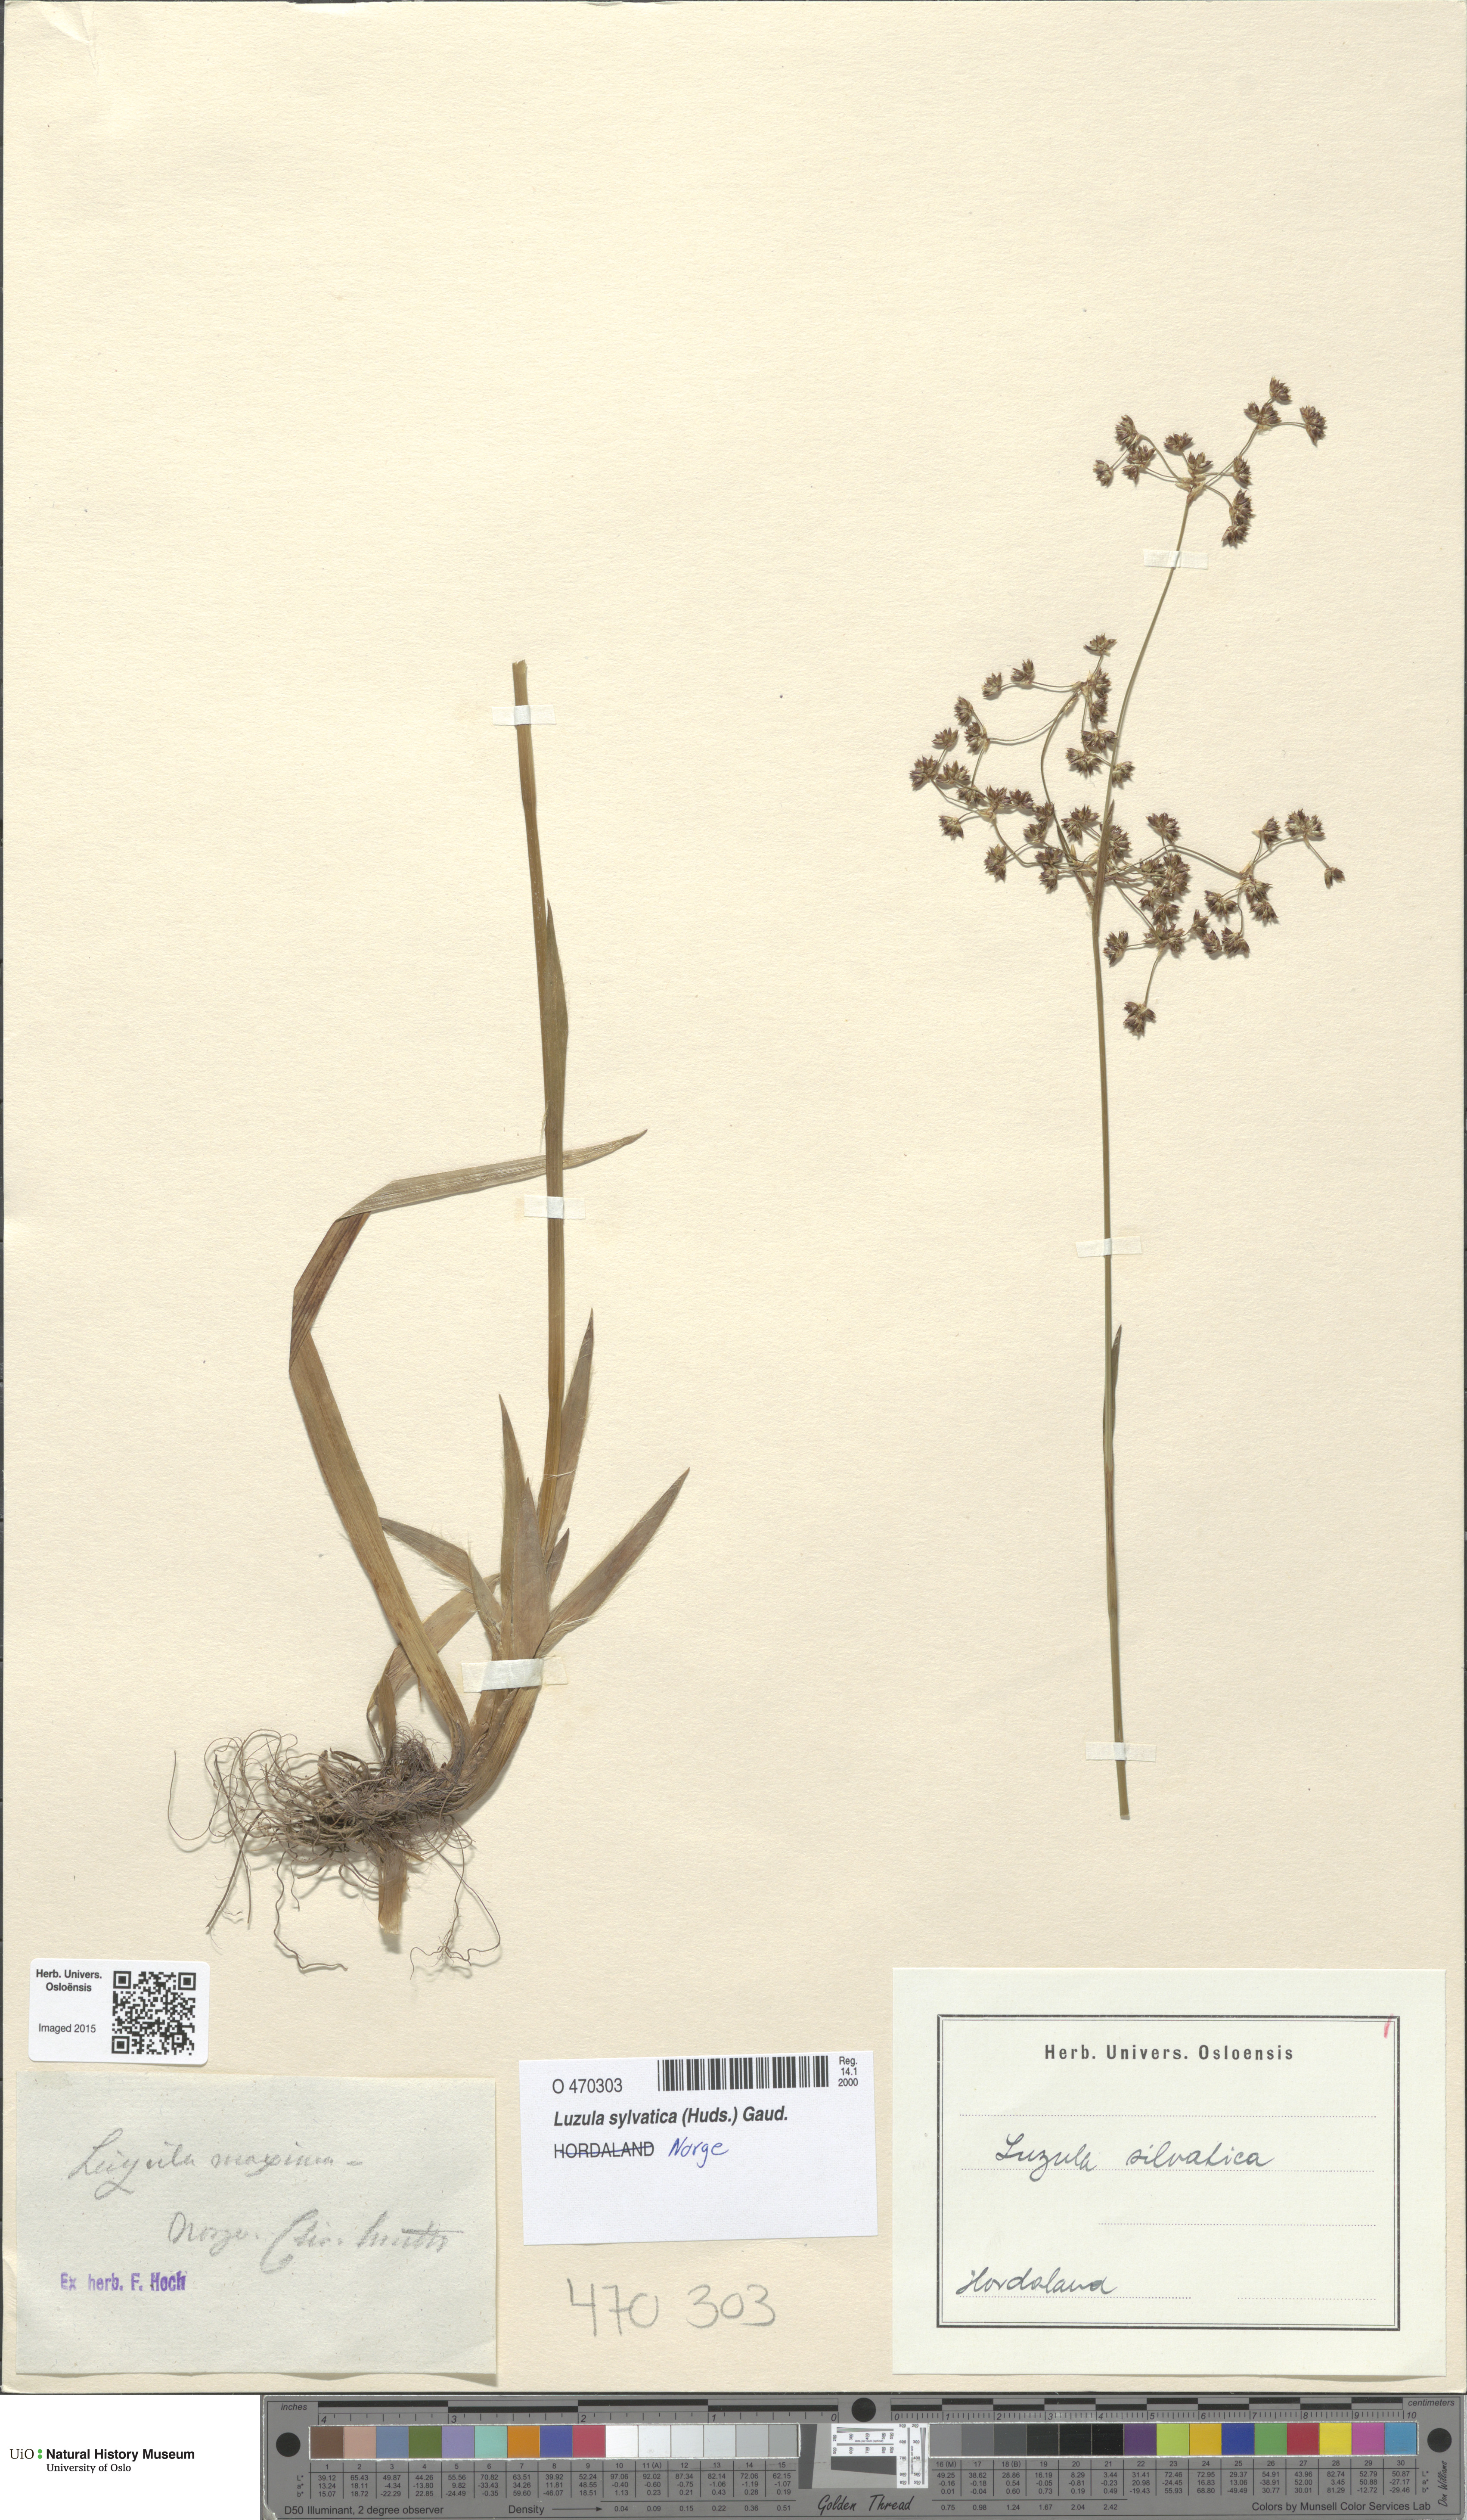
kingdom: Plantae
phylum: Tracheophyta
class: Liliopsida
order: Poales
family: Juncaceae
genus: Luzula
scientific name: Luzula sylvatica
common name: Great wood-rush
